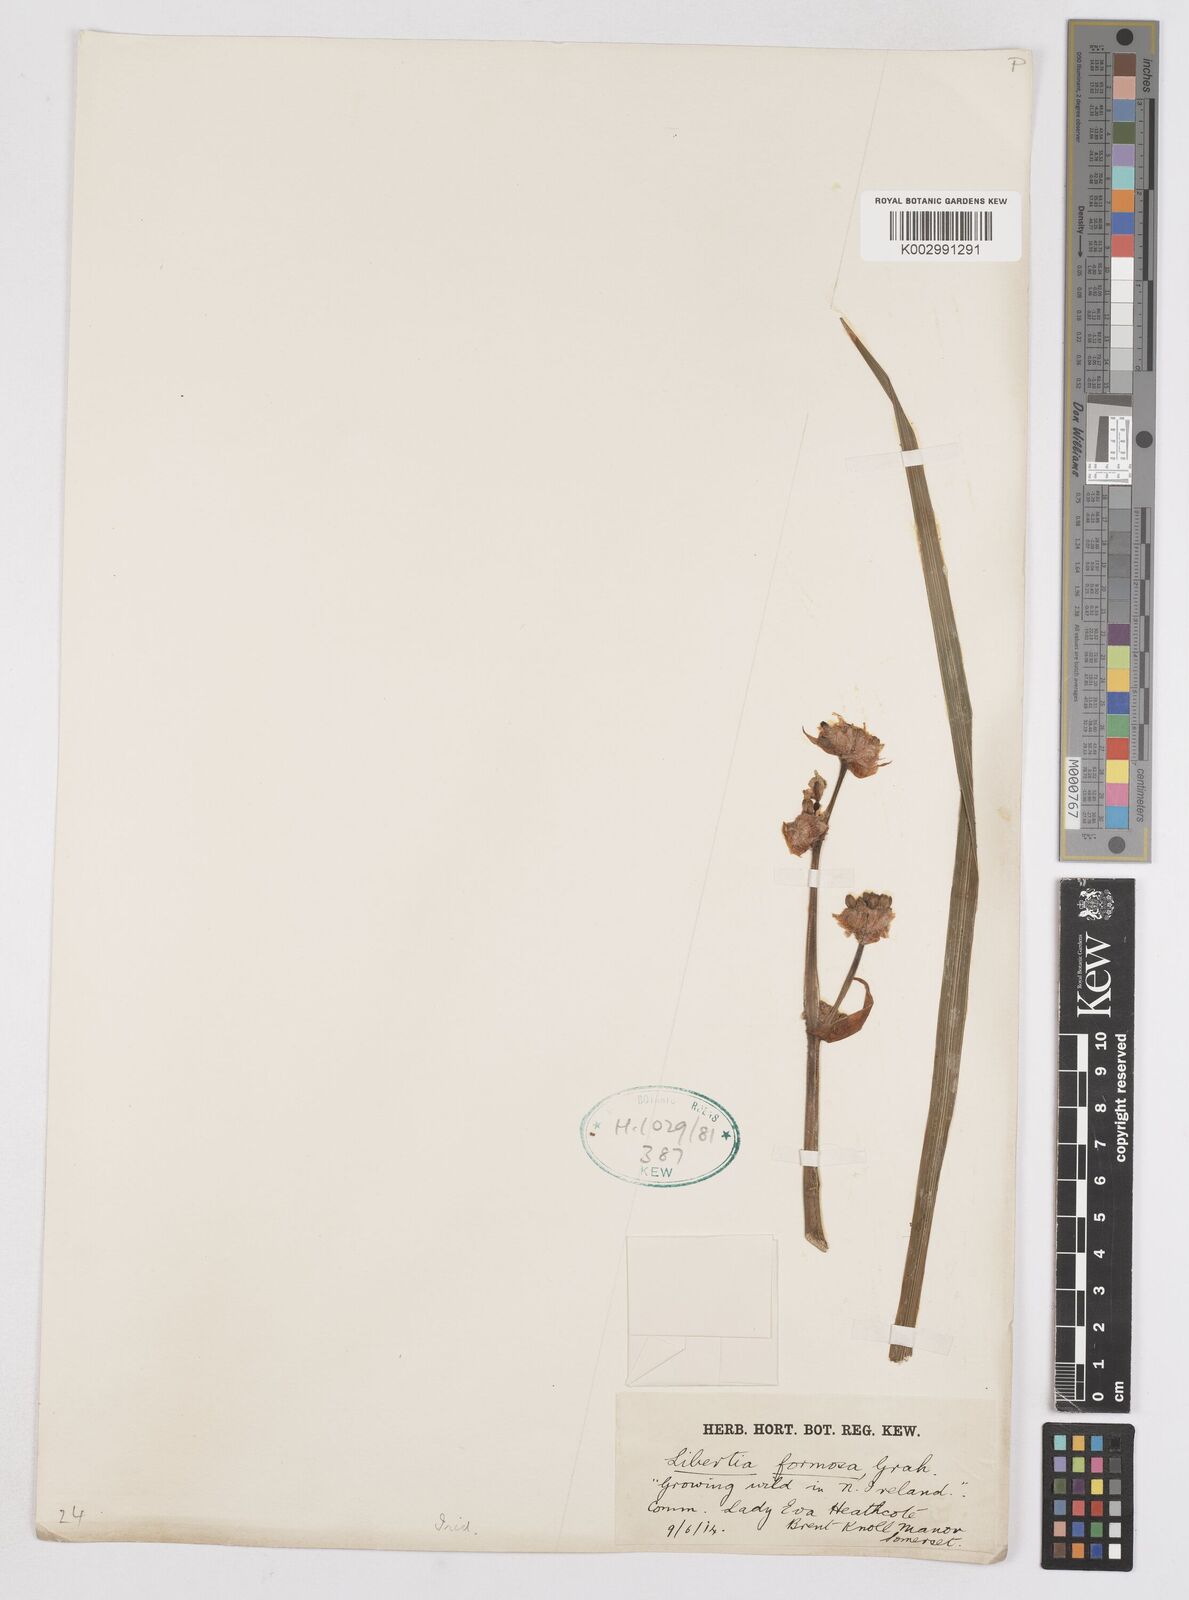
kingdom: Plantae
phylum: Tracheophyta
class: Liliopsida
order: Asparagales
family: Iridaceae
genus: Libertia
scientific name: Libertia chilensis
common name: Satin flower
